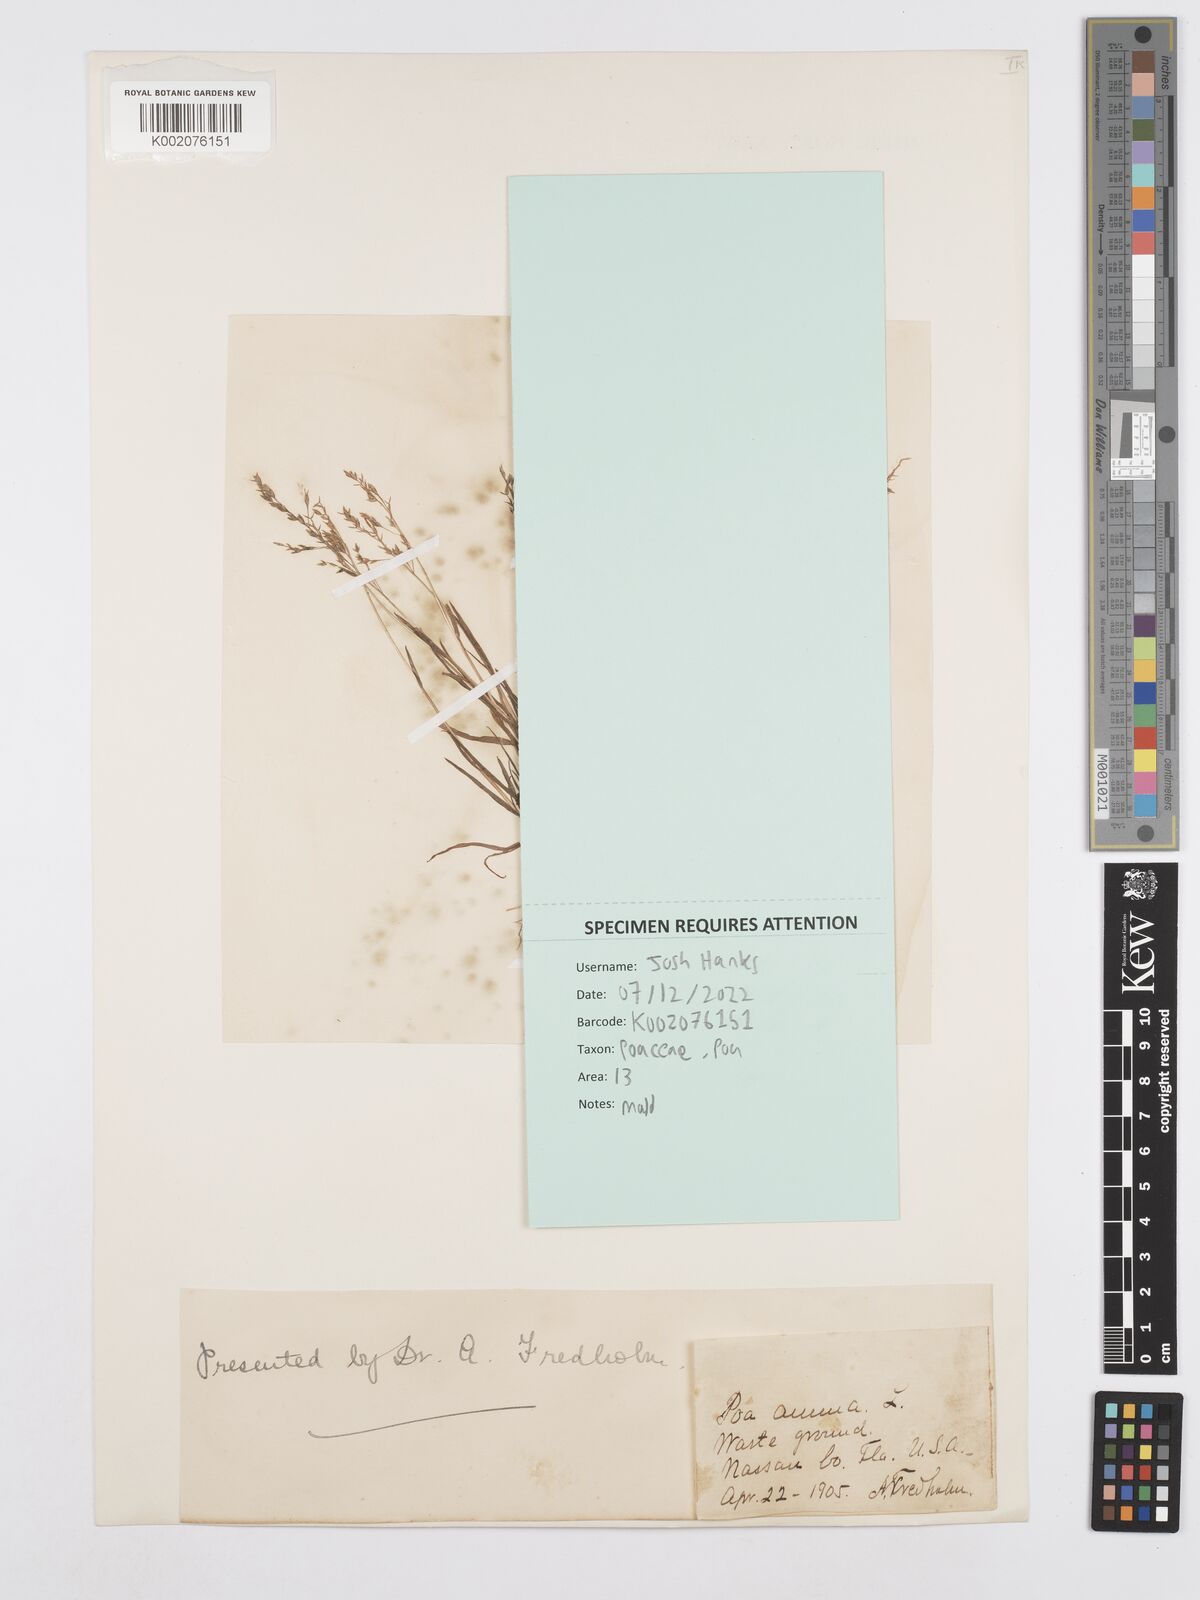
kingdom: Plantae
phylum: Tracheophyta
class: Liliopsida
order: Poales
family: Poaceae
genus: Poa
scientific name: Poa annua
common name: Annual bluegrass
